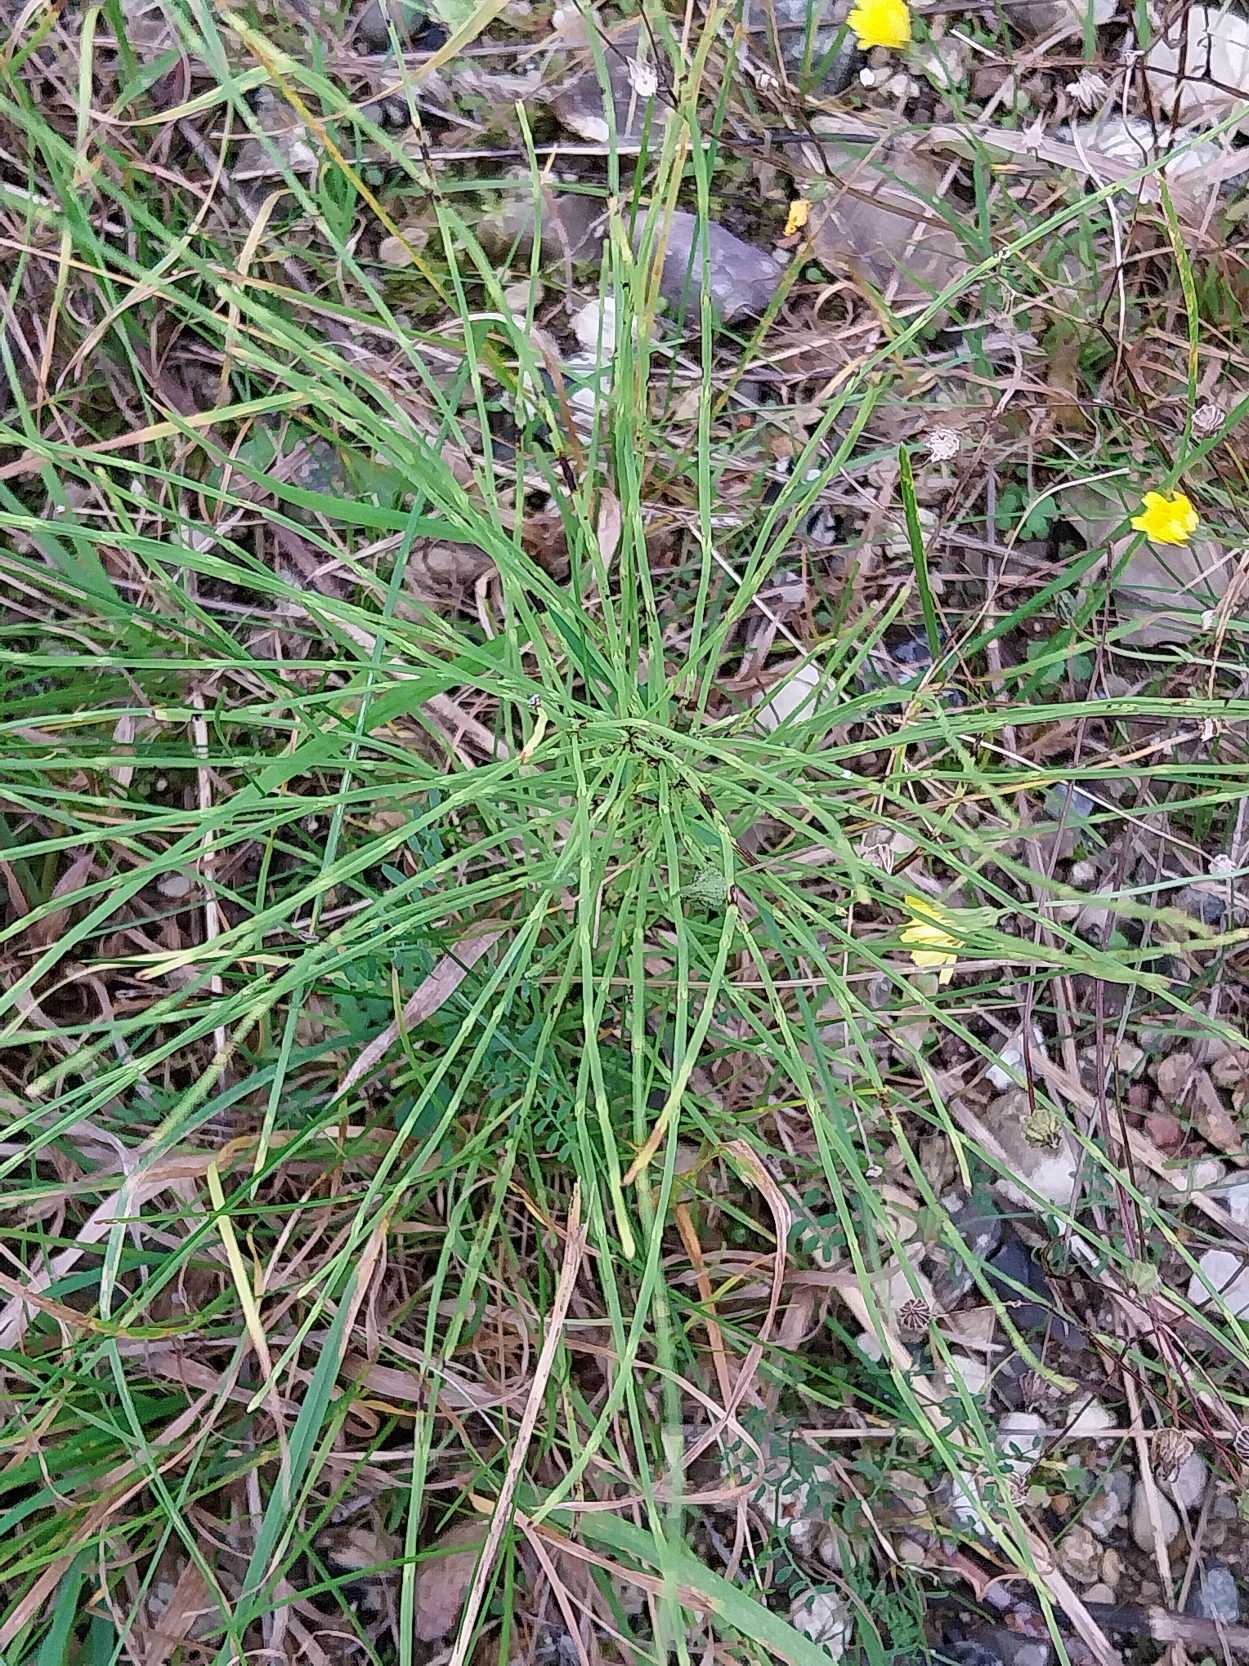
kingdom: Plantae
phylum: Tracheophyta
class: Polypodiopsida
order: Equisetales
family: Equisetaceae
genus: Equisetum
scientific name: Equisetum arvense
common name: Ager-padderok
